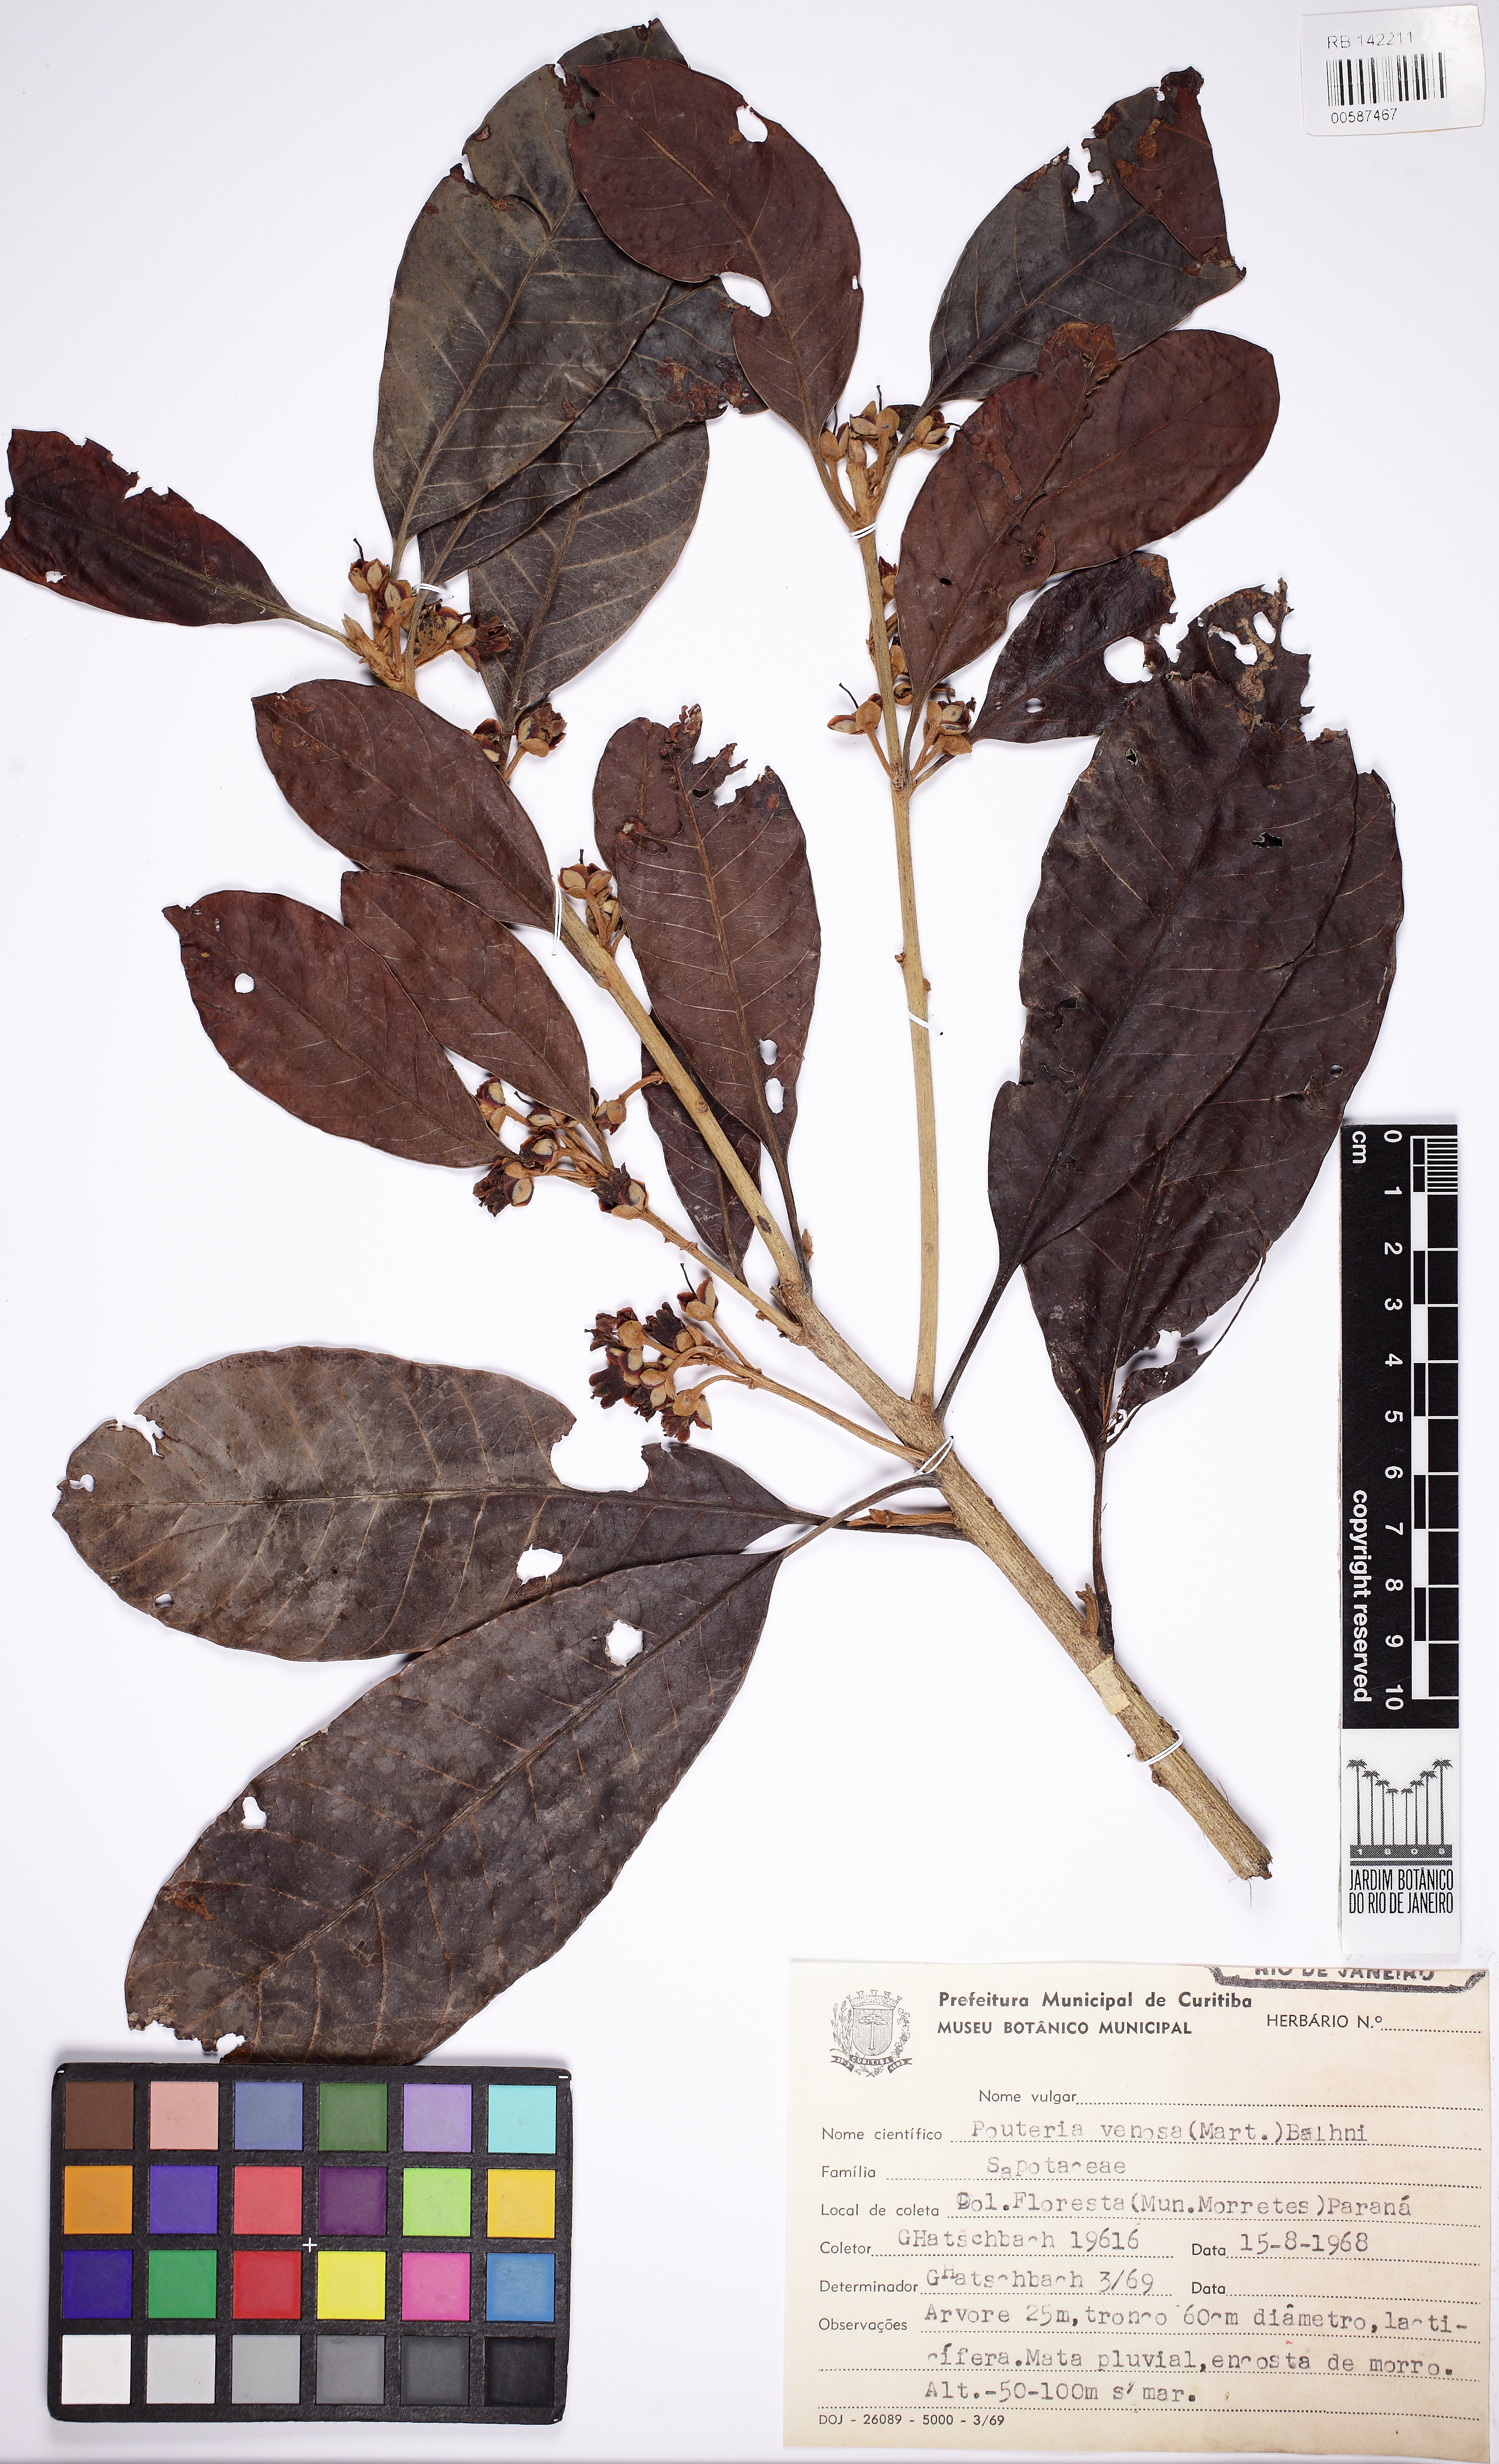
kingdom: Plantae
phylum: Tracheophyta
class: Magnoliopsida
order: Ericales
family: Sapotaceae
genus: Pouteria
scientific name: Pouteria venosa
